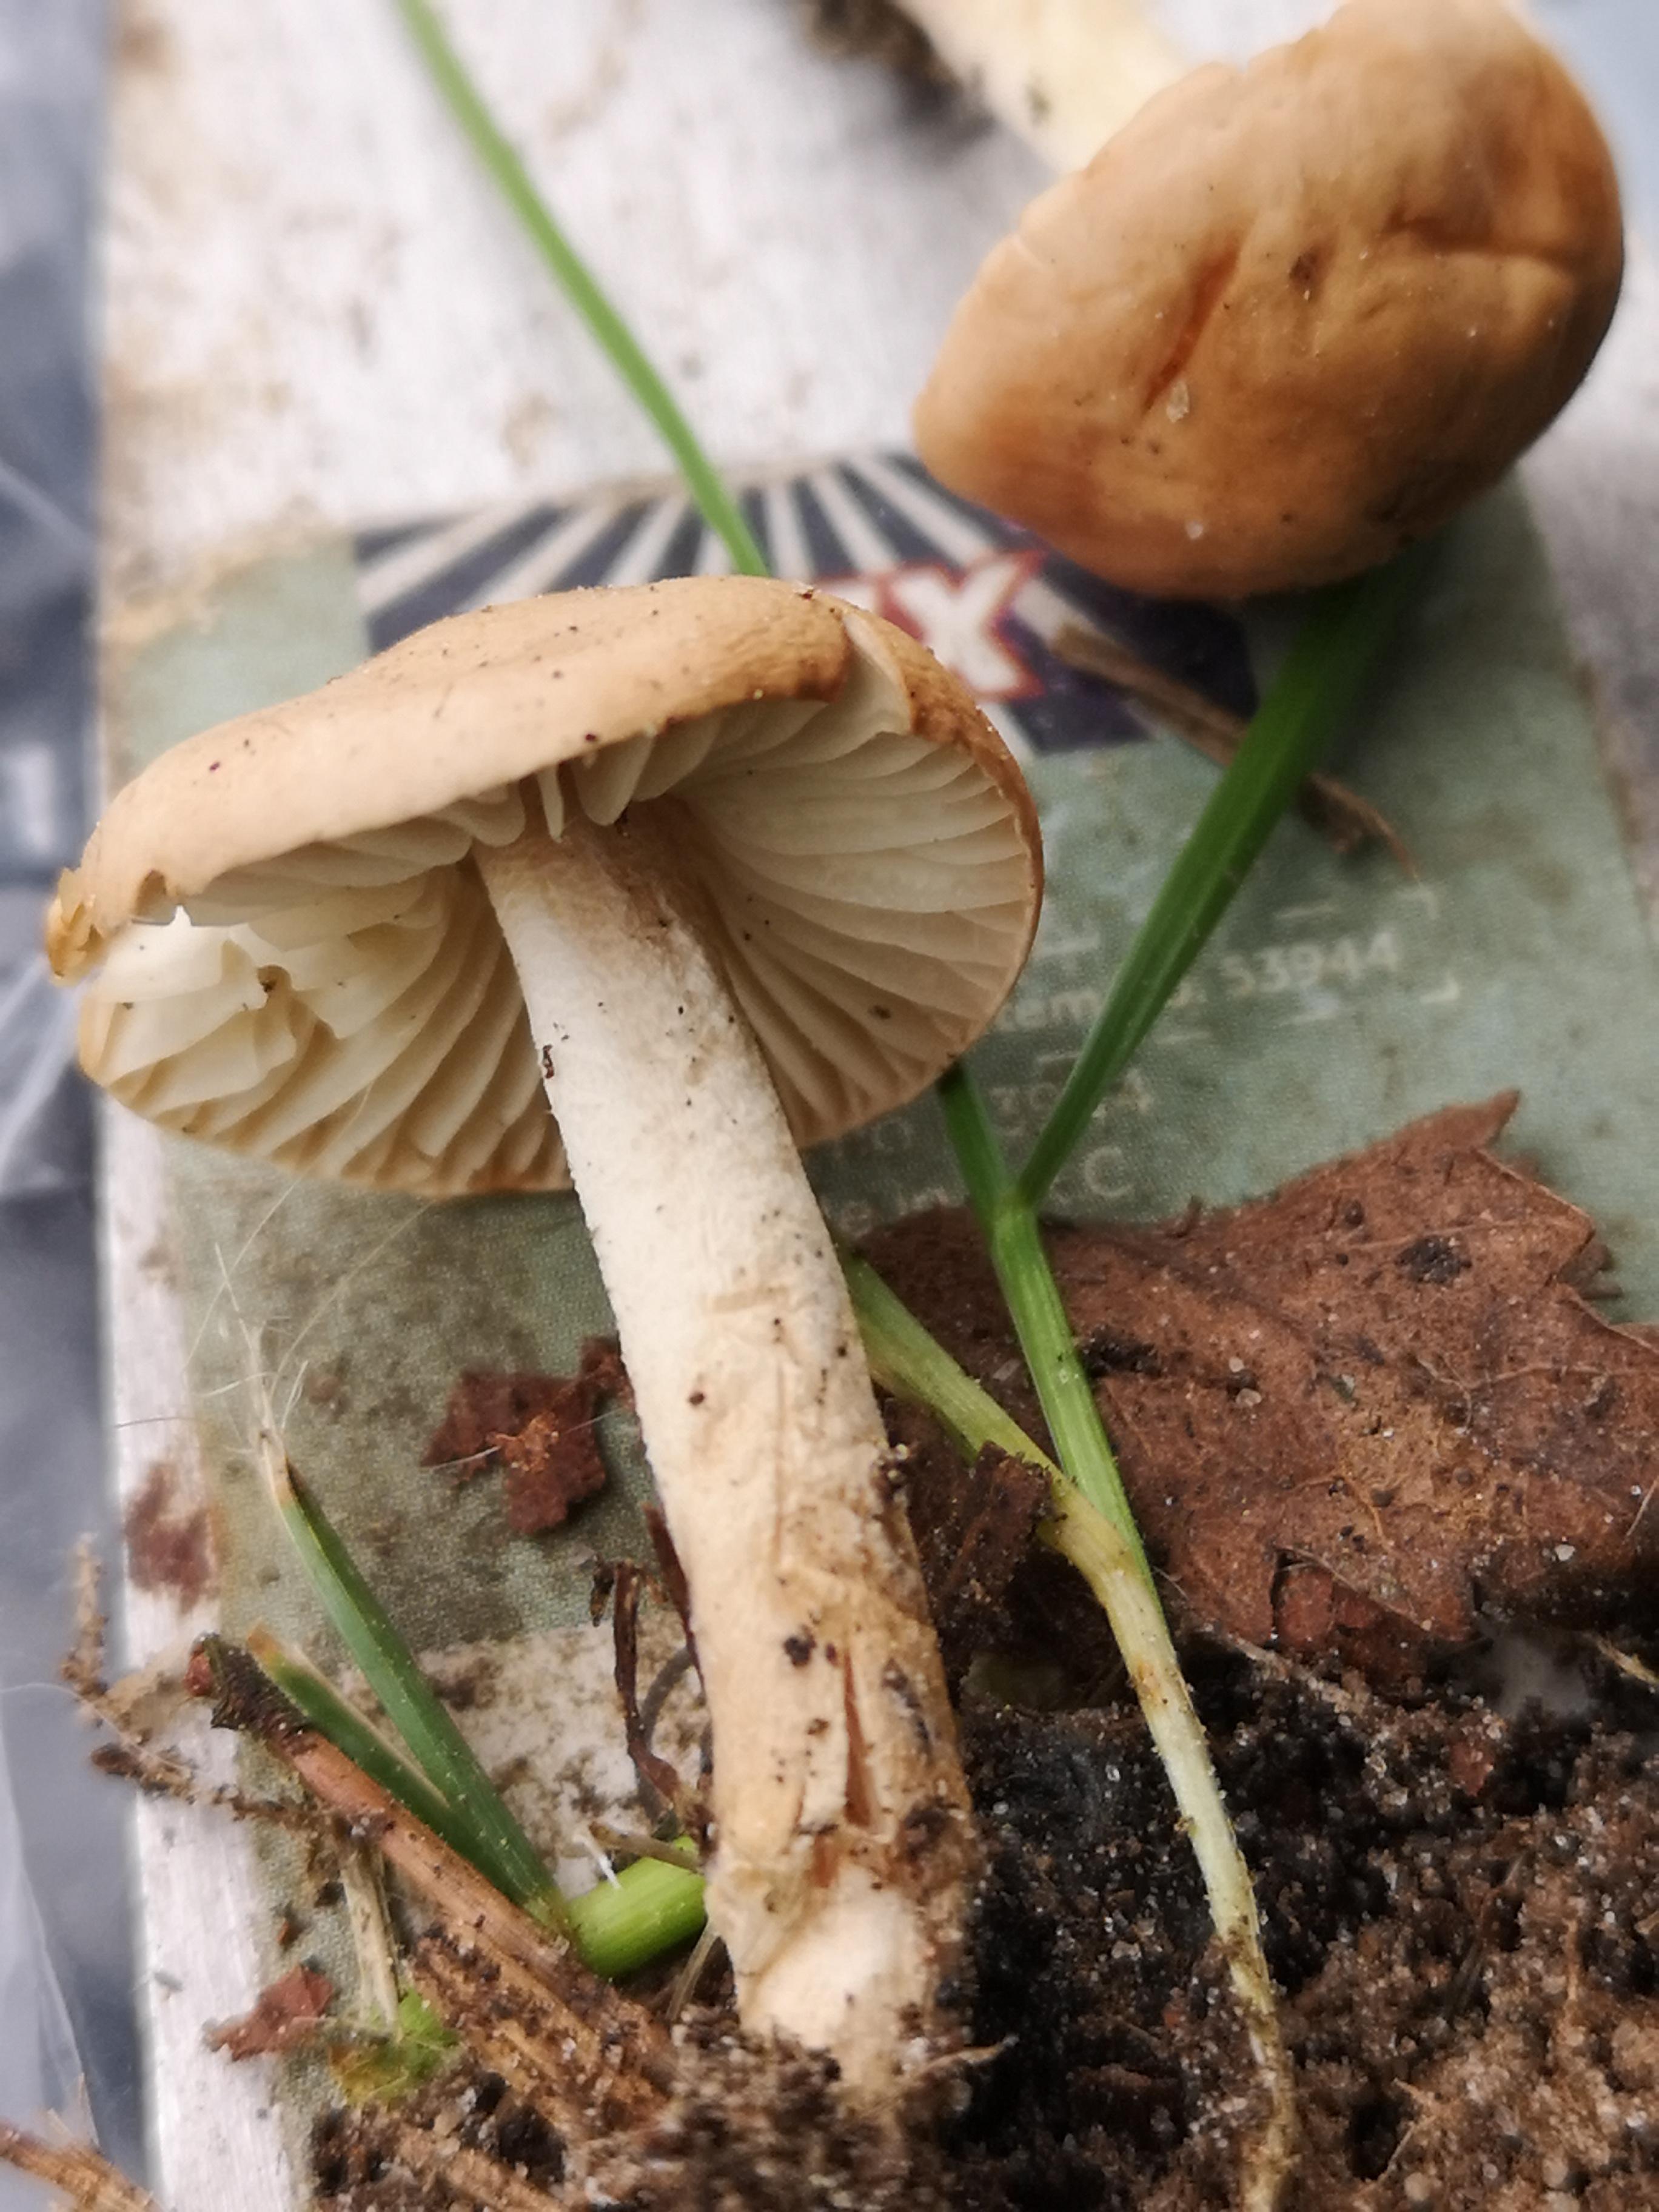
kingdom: Fungi
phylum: Basidiomycota
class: Agaricomycetes
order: Agaricales
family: Marasmiaceae
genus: Marasmius
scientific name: Marasmius oreades
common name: elledans-bruskhat
